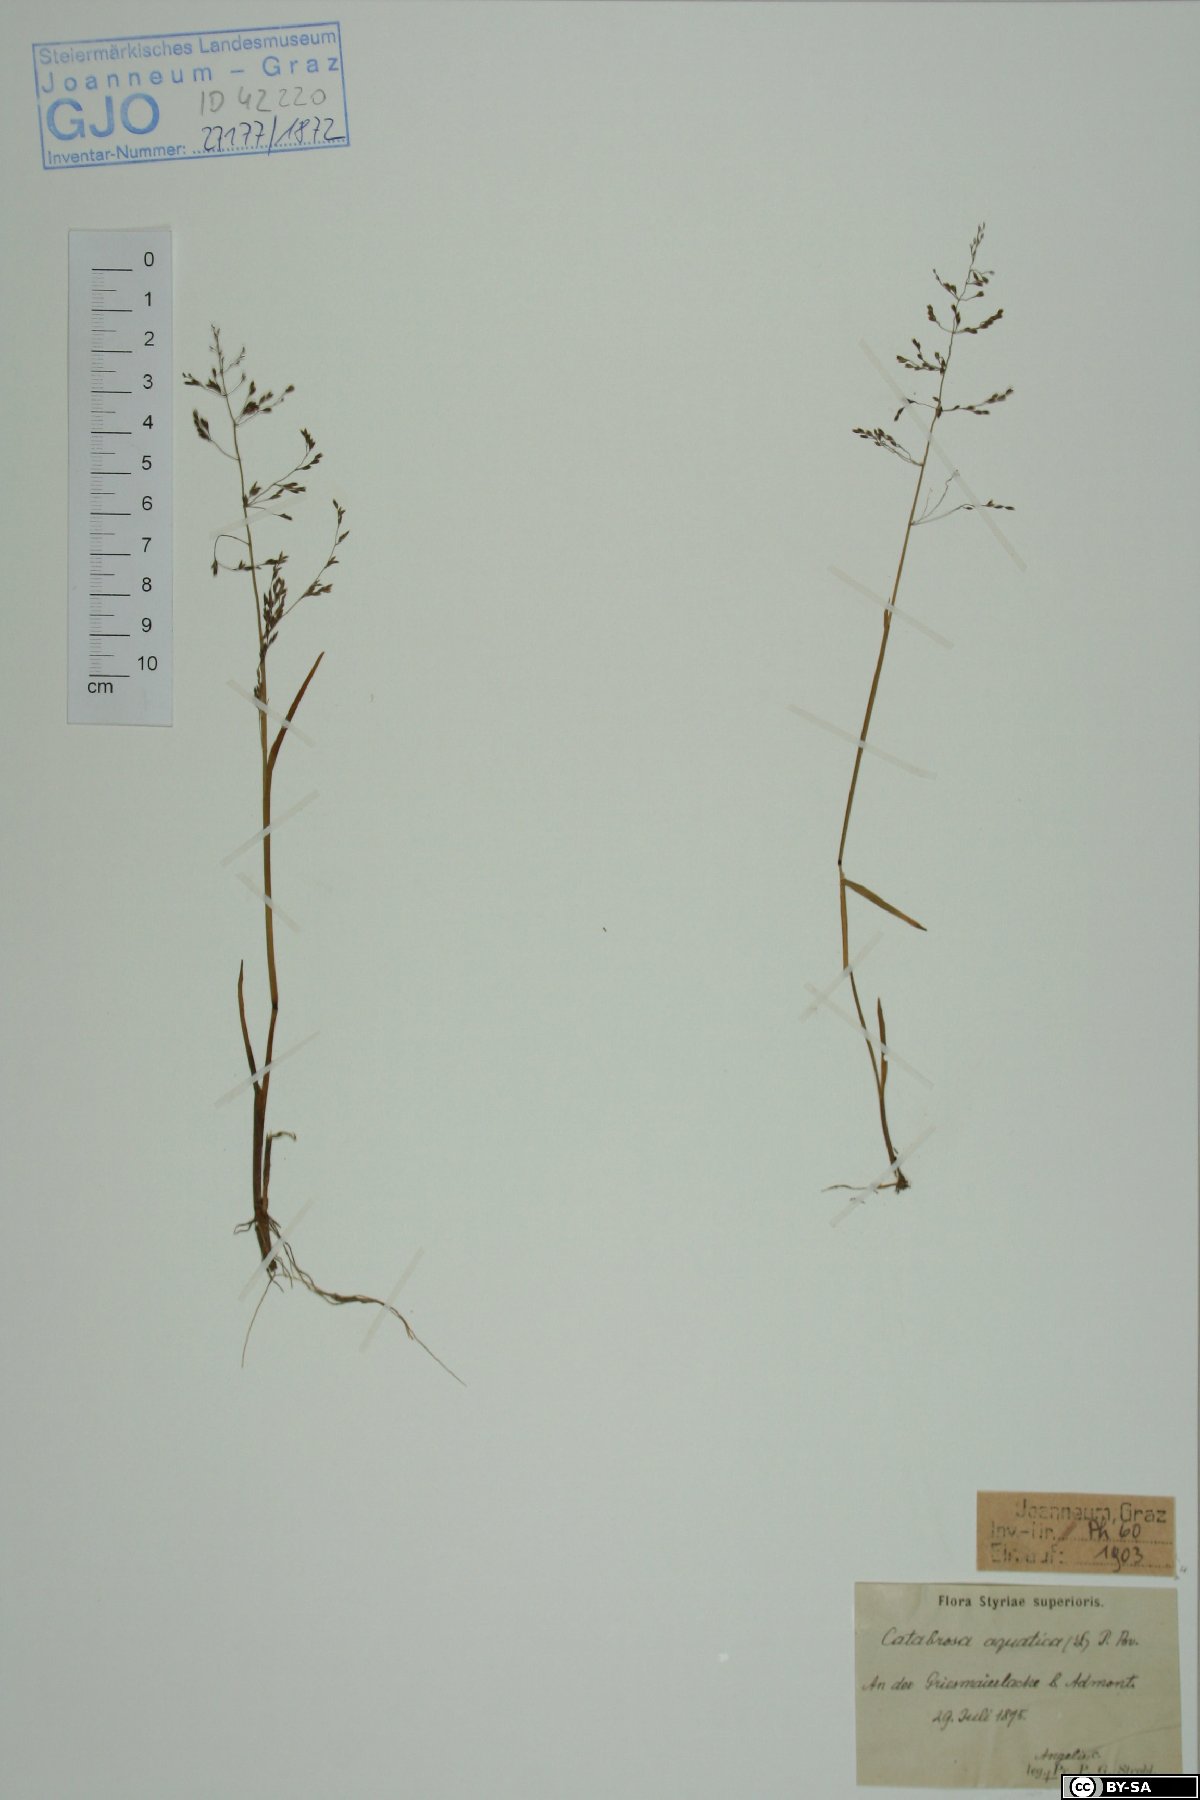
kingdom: Plantae
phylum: Tracheophyta
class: Liliopsida
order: Poales
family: Poaceae
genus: Catabrosa
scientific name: Catabrosa aquatica
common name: Whorl-grass
